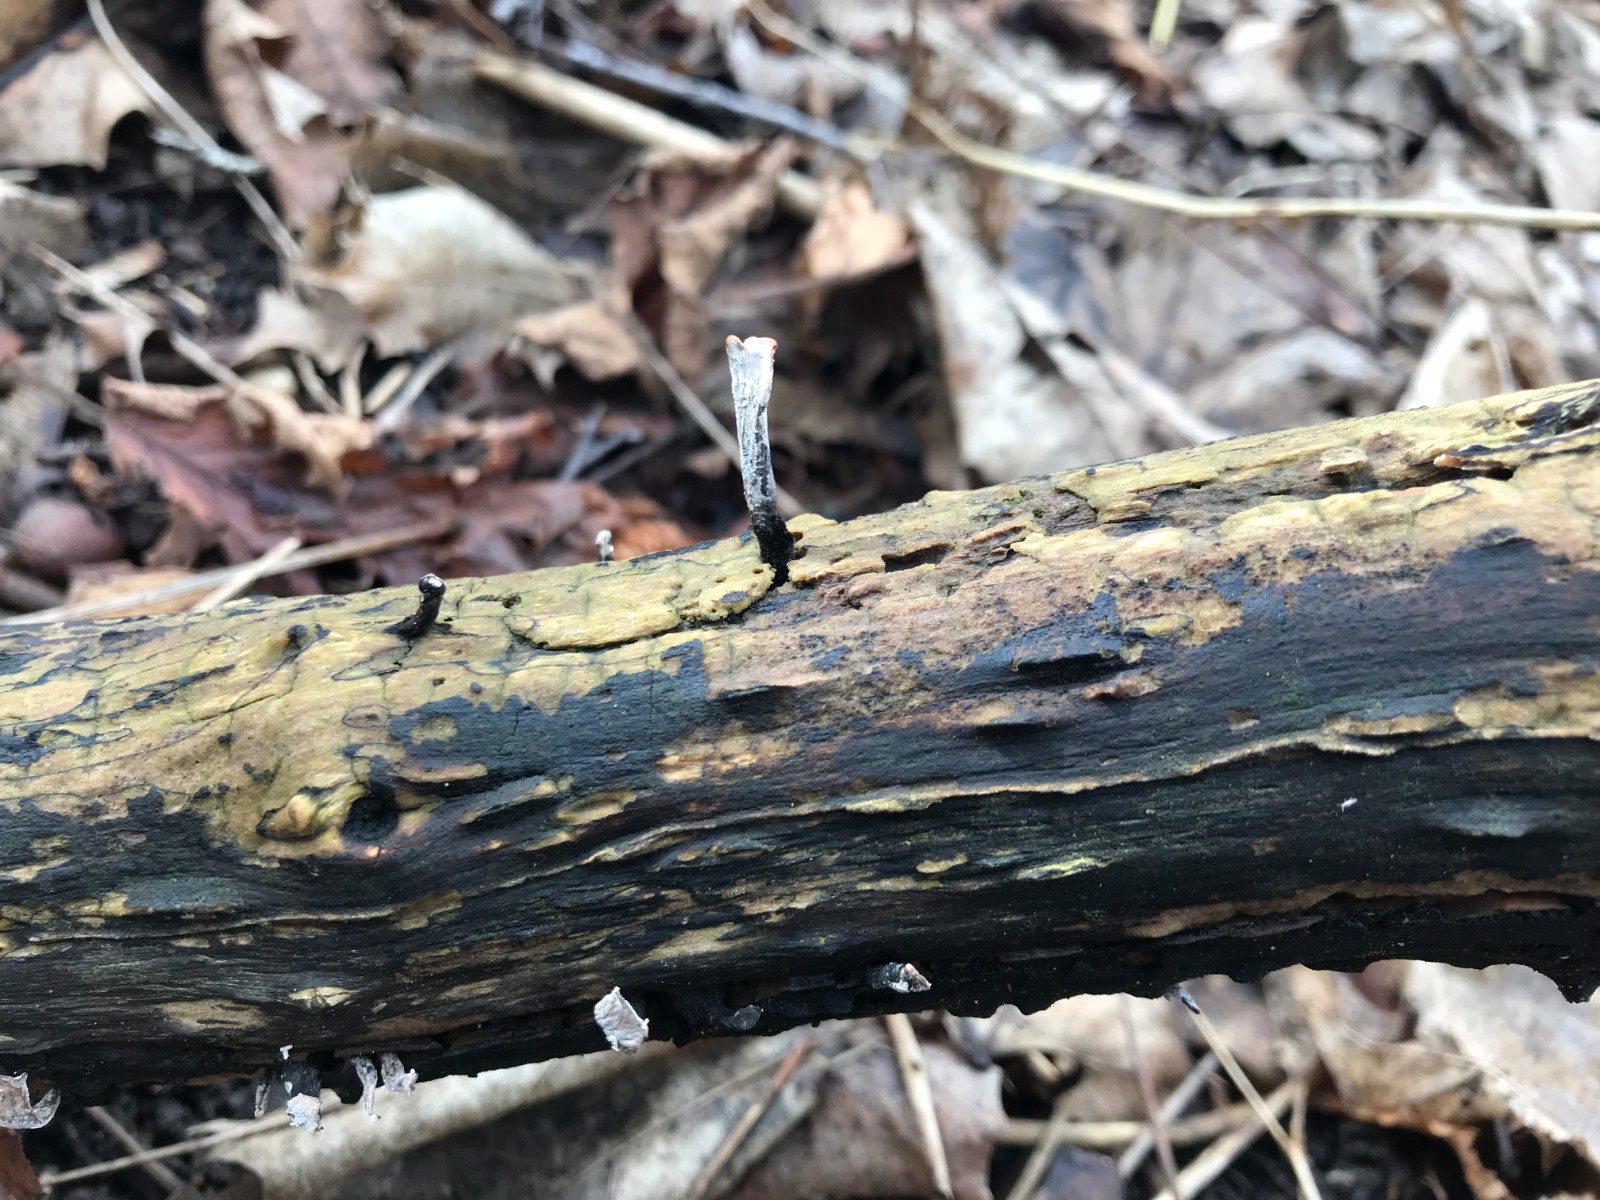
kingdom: Fungi
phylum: Ascomycota
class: Sordariomycetes
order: Xylariales
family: Xylariaceae
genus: Xylaria
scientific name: Xylaria hypoxylon
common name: grenet stødsvamp
